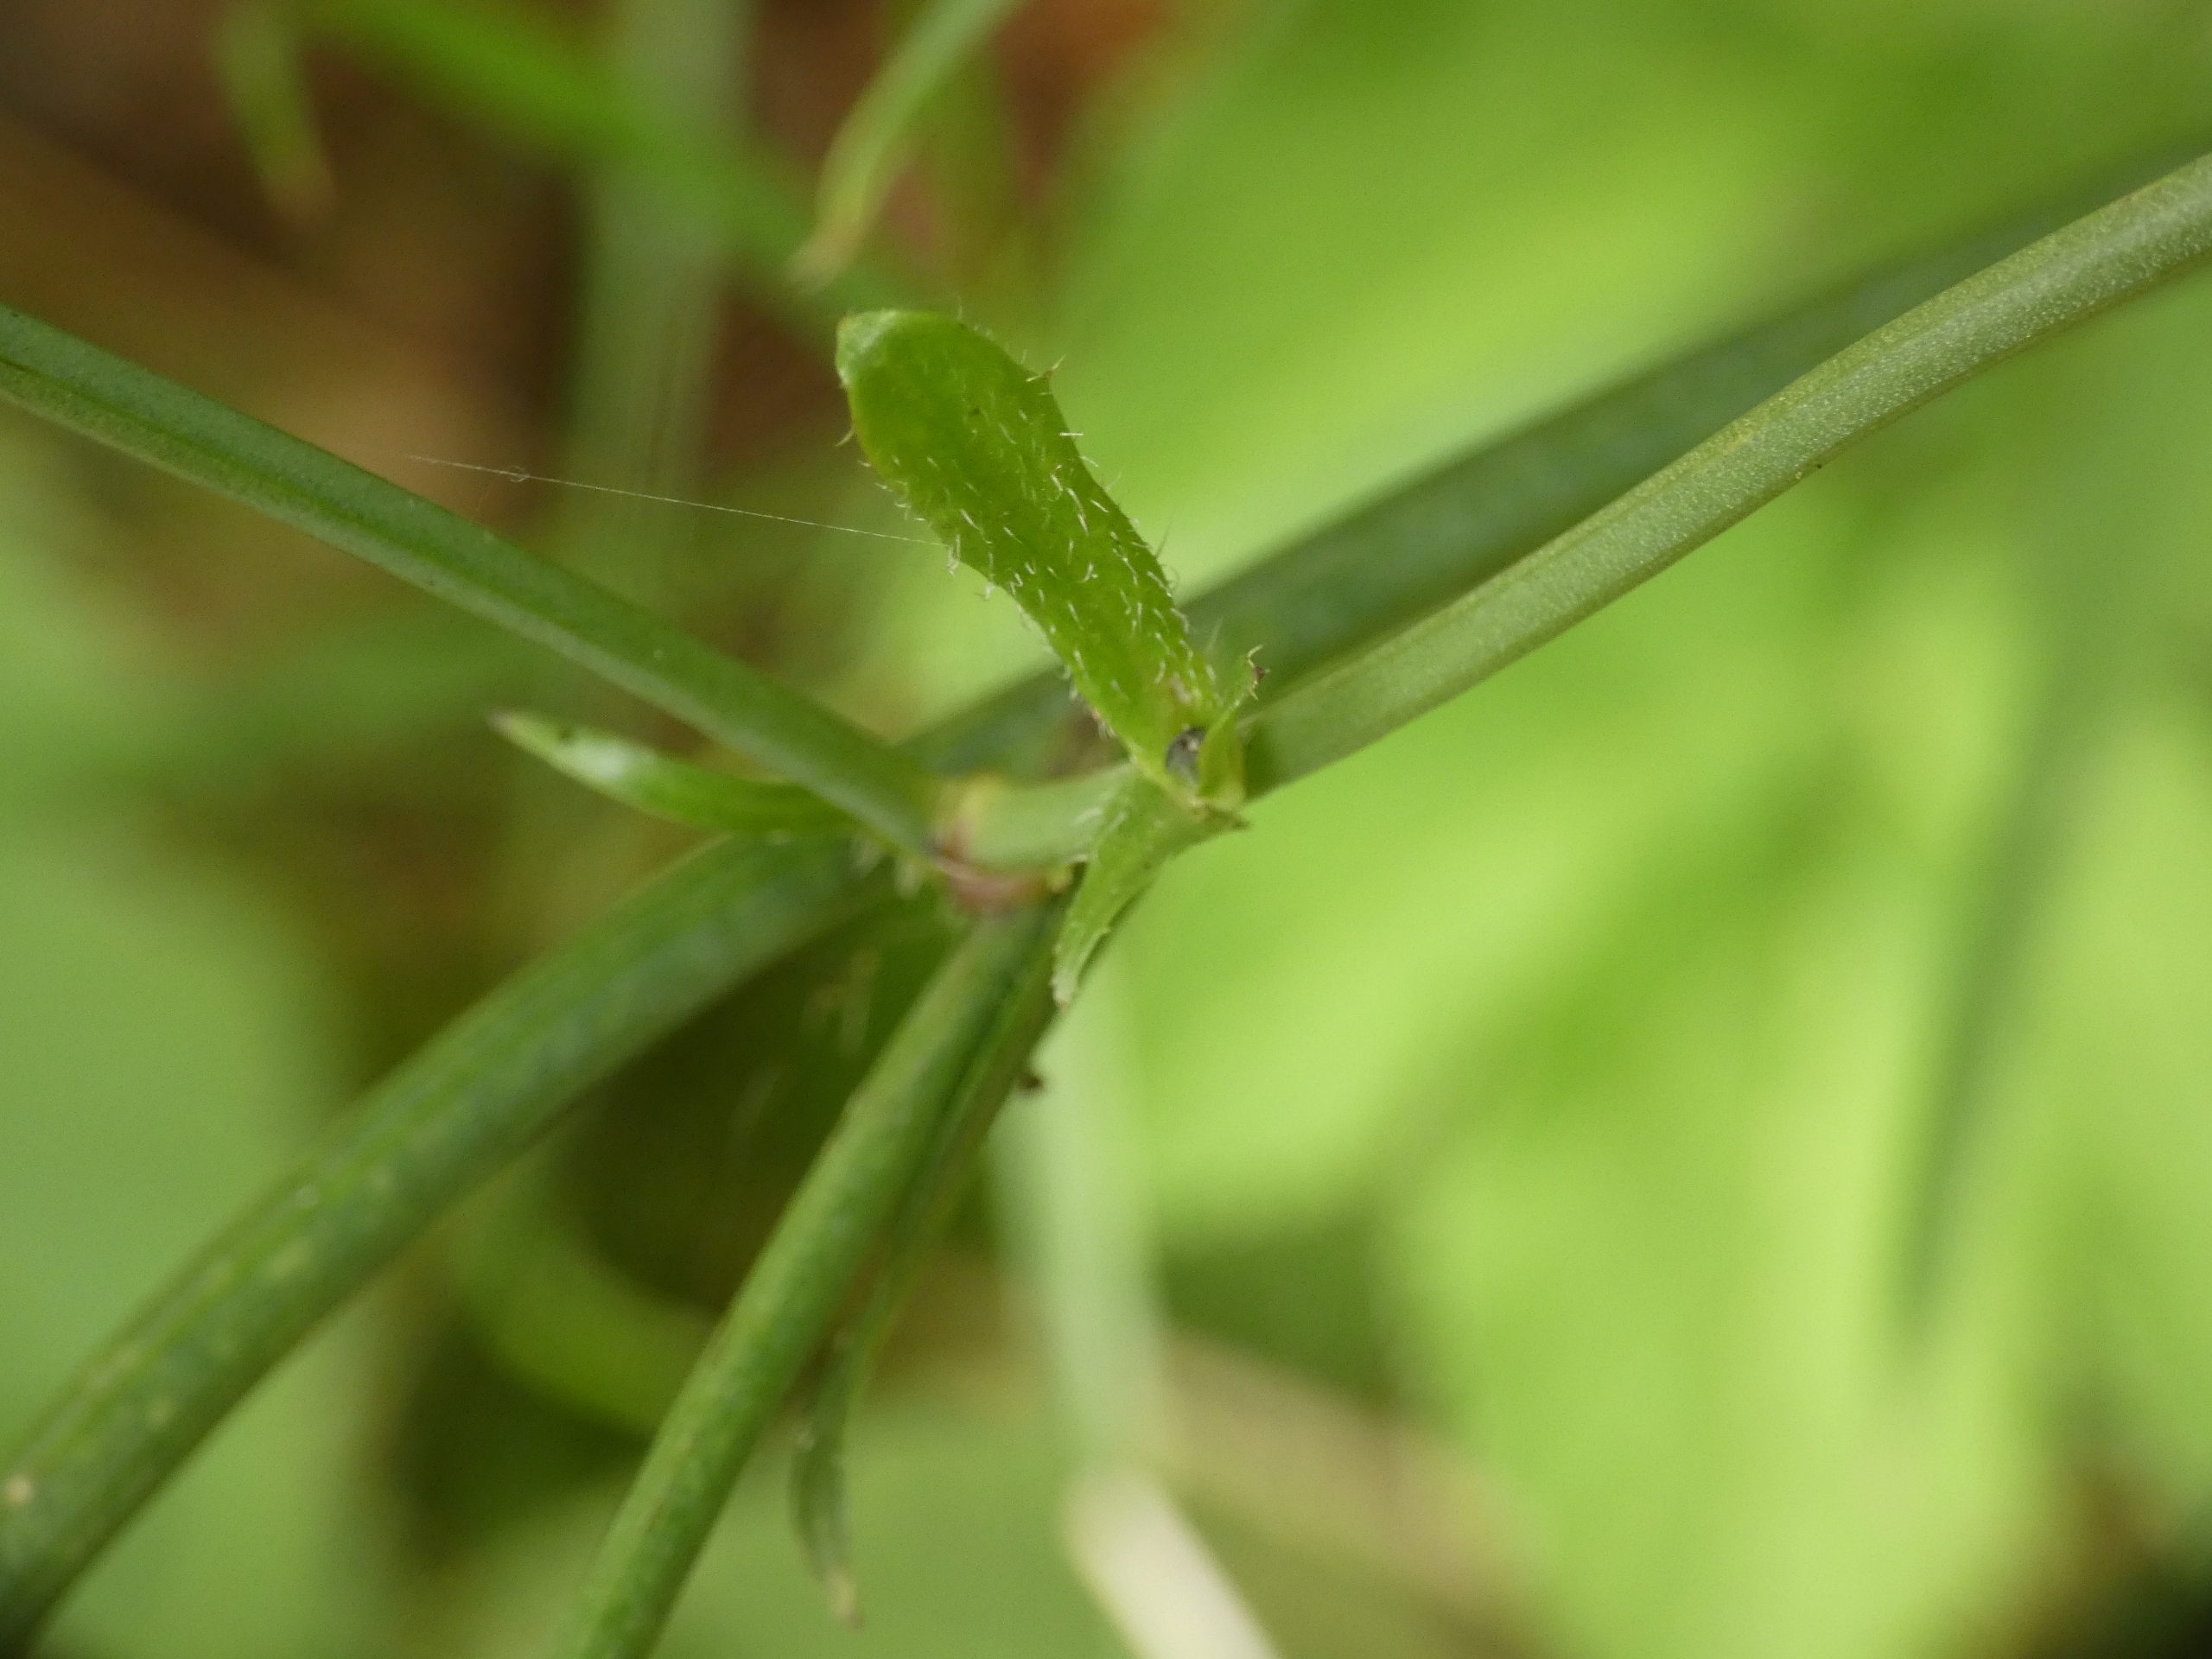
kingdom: Plantae
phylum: Tracheophyta
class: Magnoliopsida
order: Asterales
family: Asteraceae
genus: Hypochaeris
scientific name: Hypochaeris radicata
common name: Almindelig kongepen
